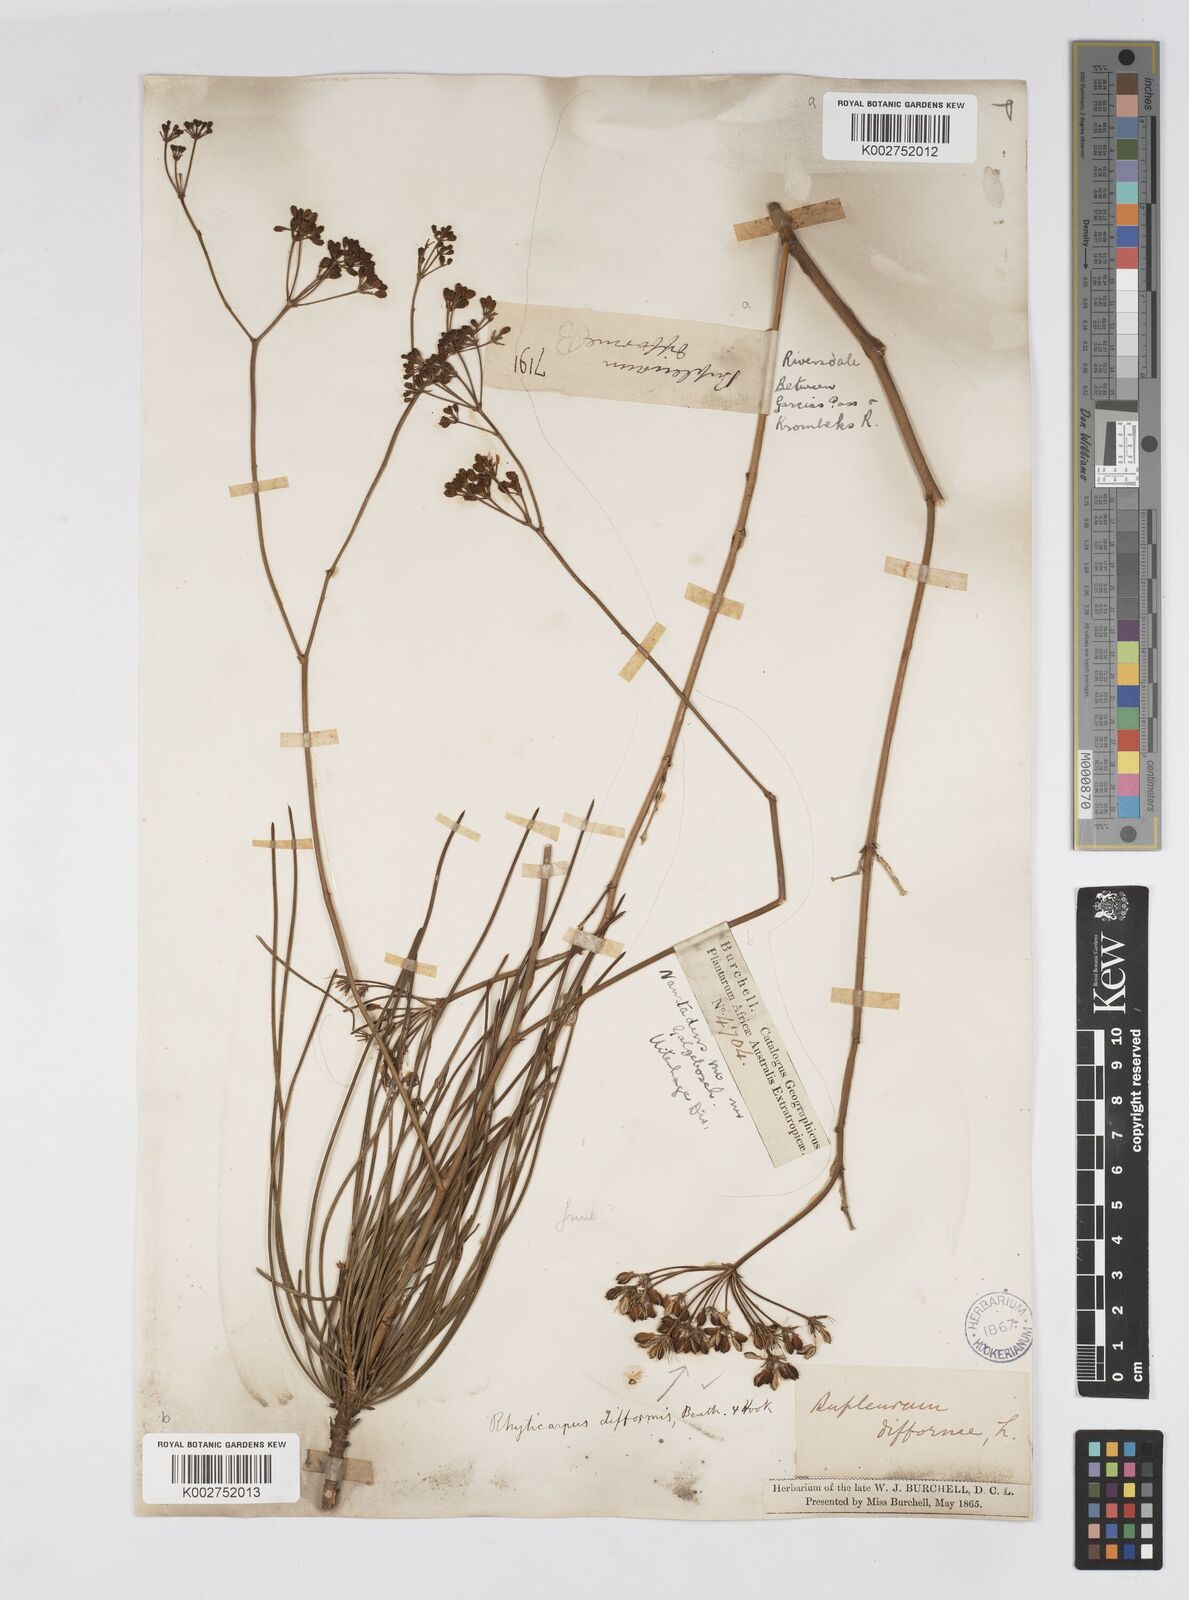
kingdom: Plantae
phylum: Tracheophyta
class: Magnoliopsida
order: Apiales
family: Apiaceae
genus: Anginon
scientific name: Anginon difforme
